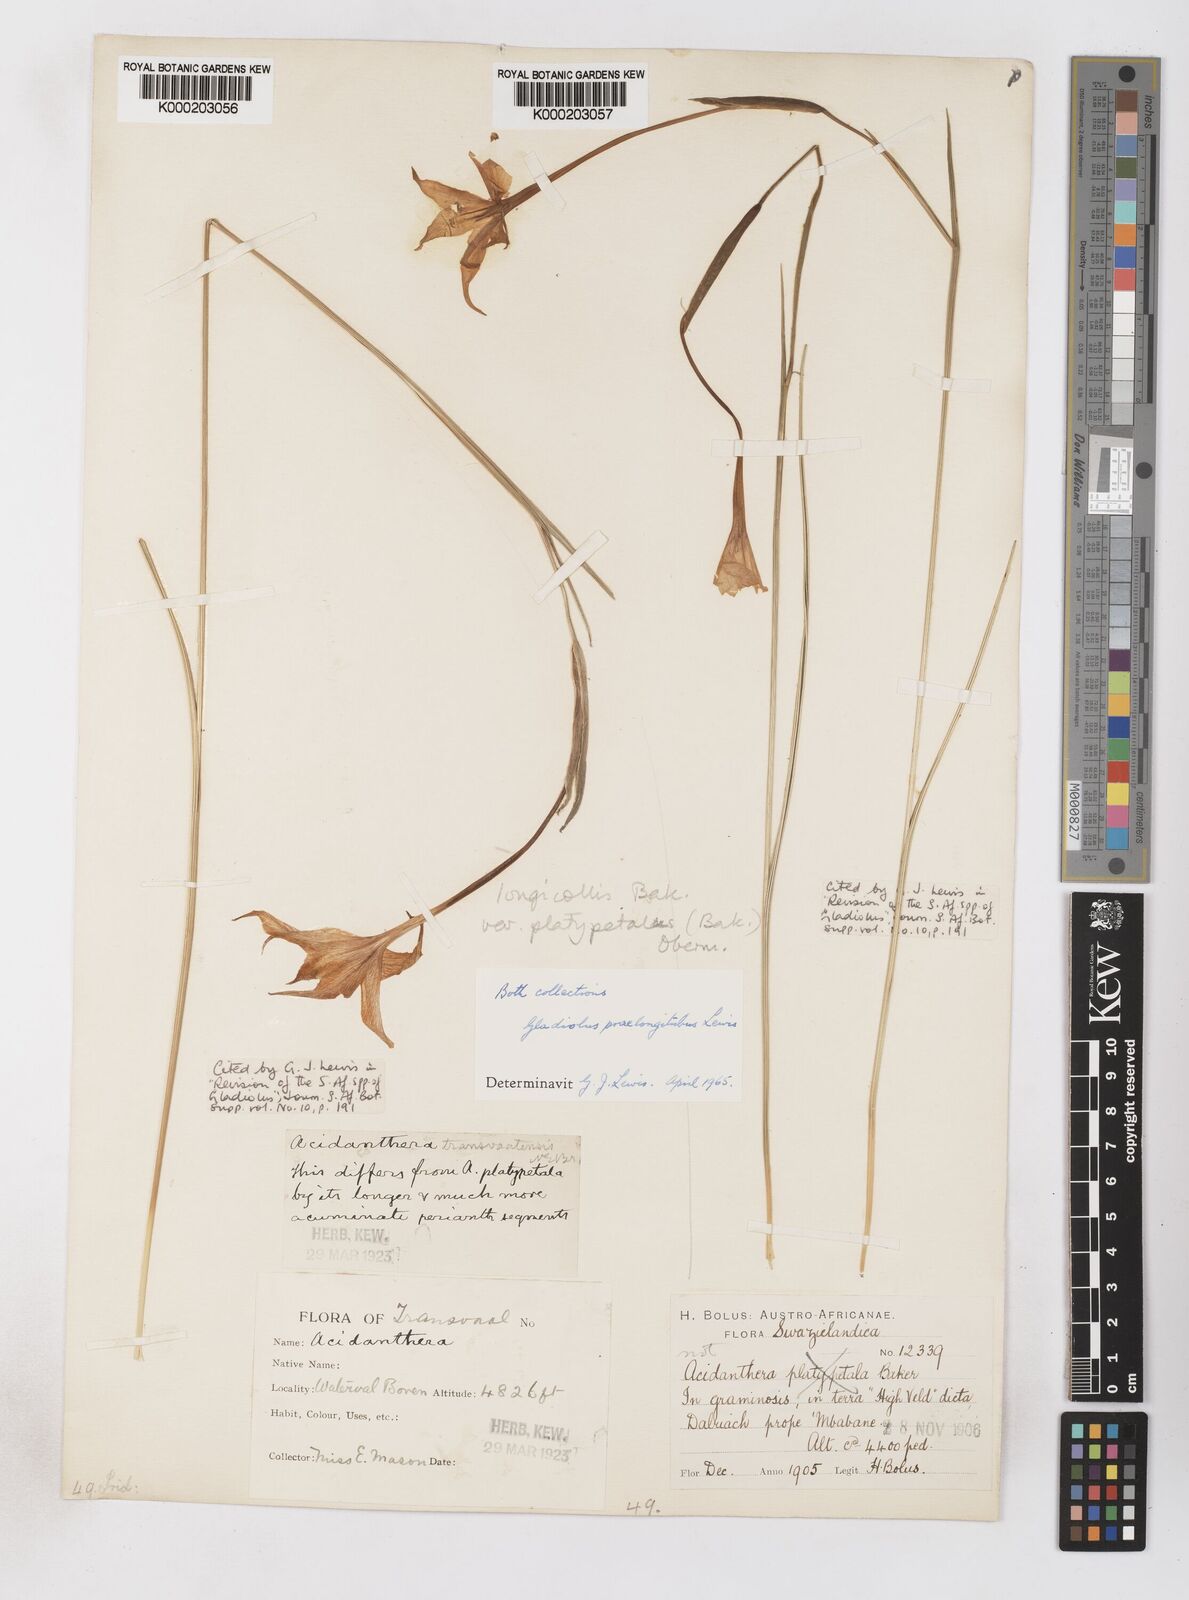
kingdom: Plantae
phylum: Tracheophyta
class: Liliopsida
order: Asparagales
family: Iridaceae
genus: Gladiolus
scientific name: Gladiolus longicollis
